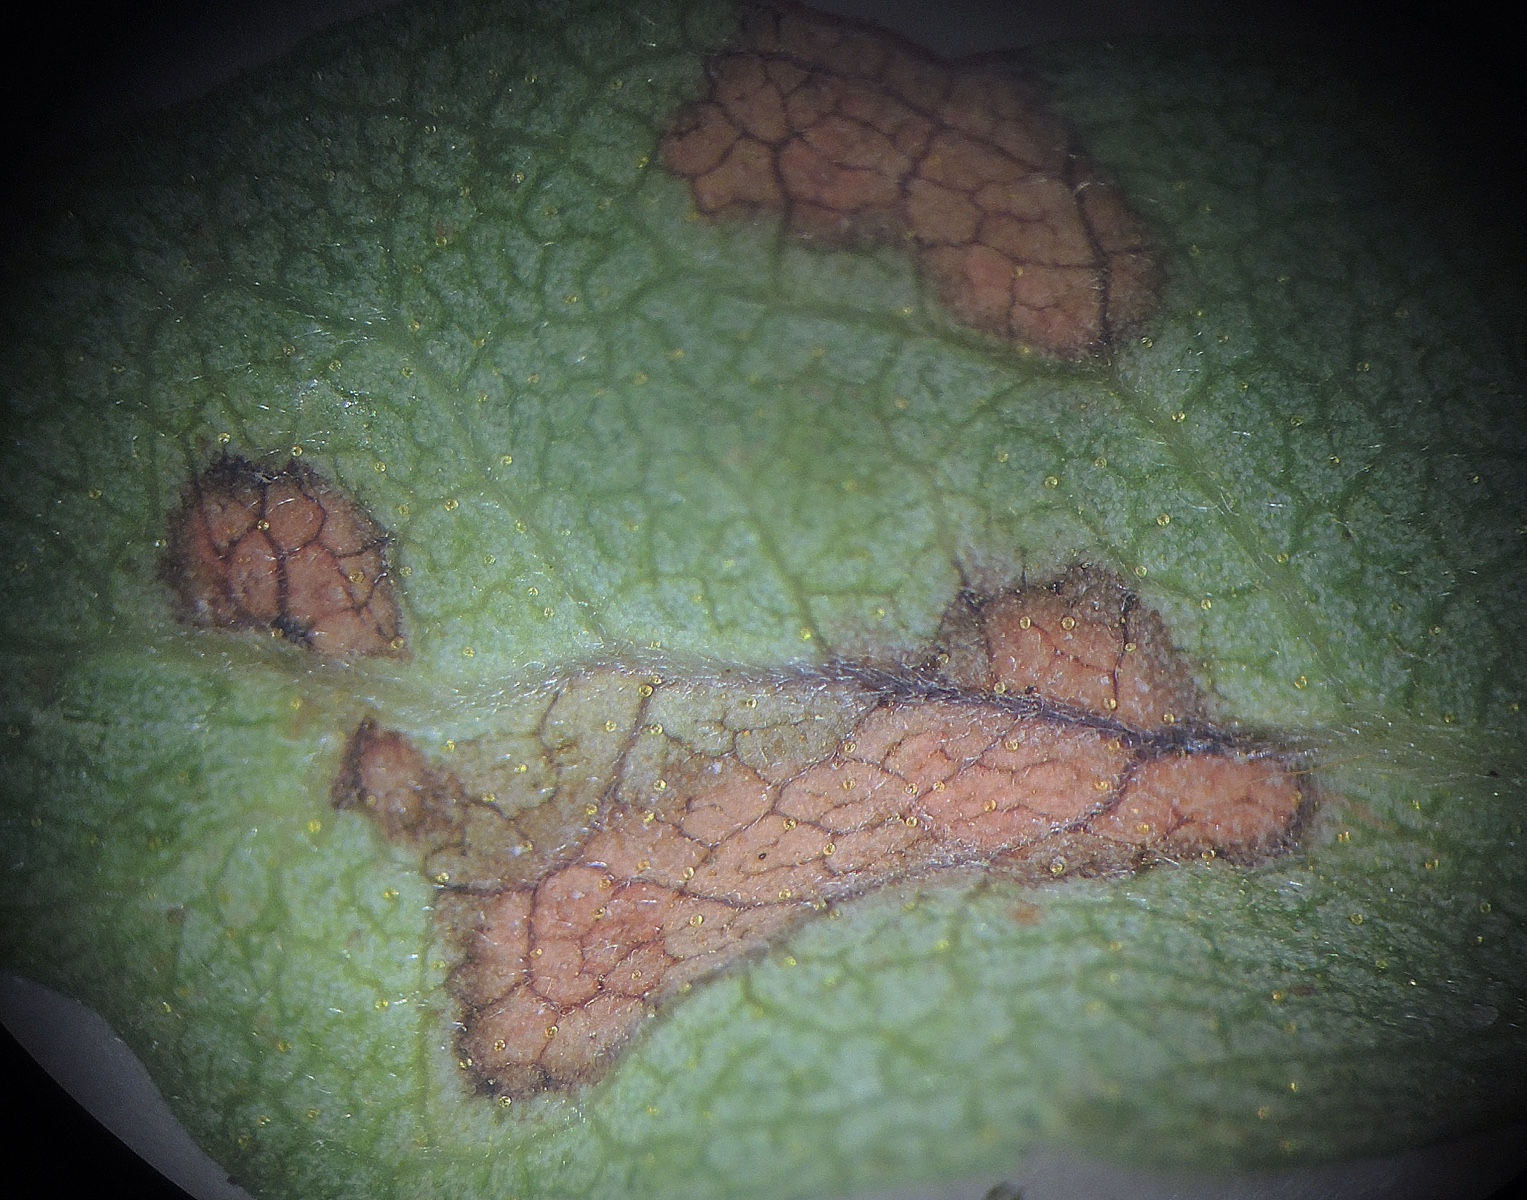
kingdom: Fungi
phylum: Ascomycota
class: Dothideomycetes
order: Mycosphaerellales
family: Mycosphaerellaceae
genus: Ramularia
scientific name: Ramularia rufibasis
